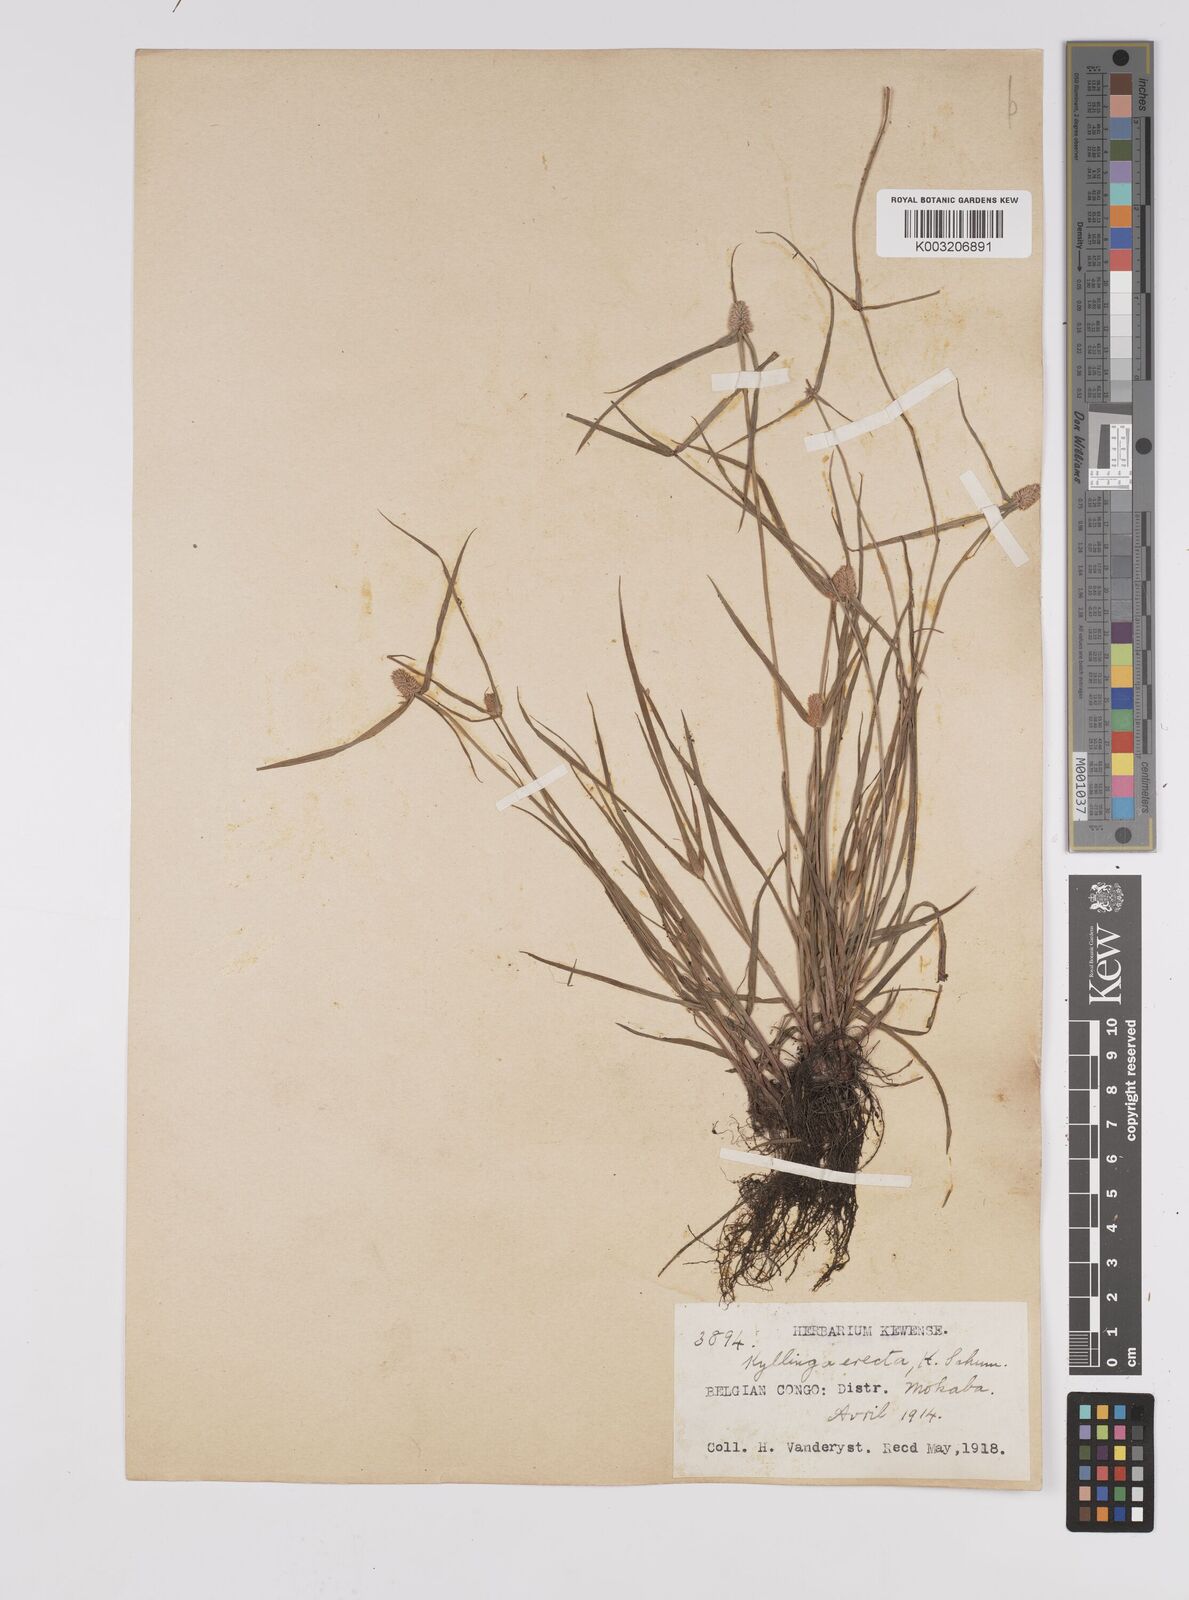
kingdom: Plantae
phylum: Tracheophyta
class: Liliopsida
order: Poales
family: Cyperaceae
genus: Cyperus
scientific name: Cyperus odoratus
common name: Fragrant flatsedge
